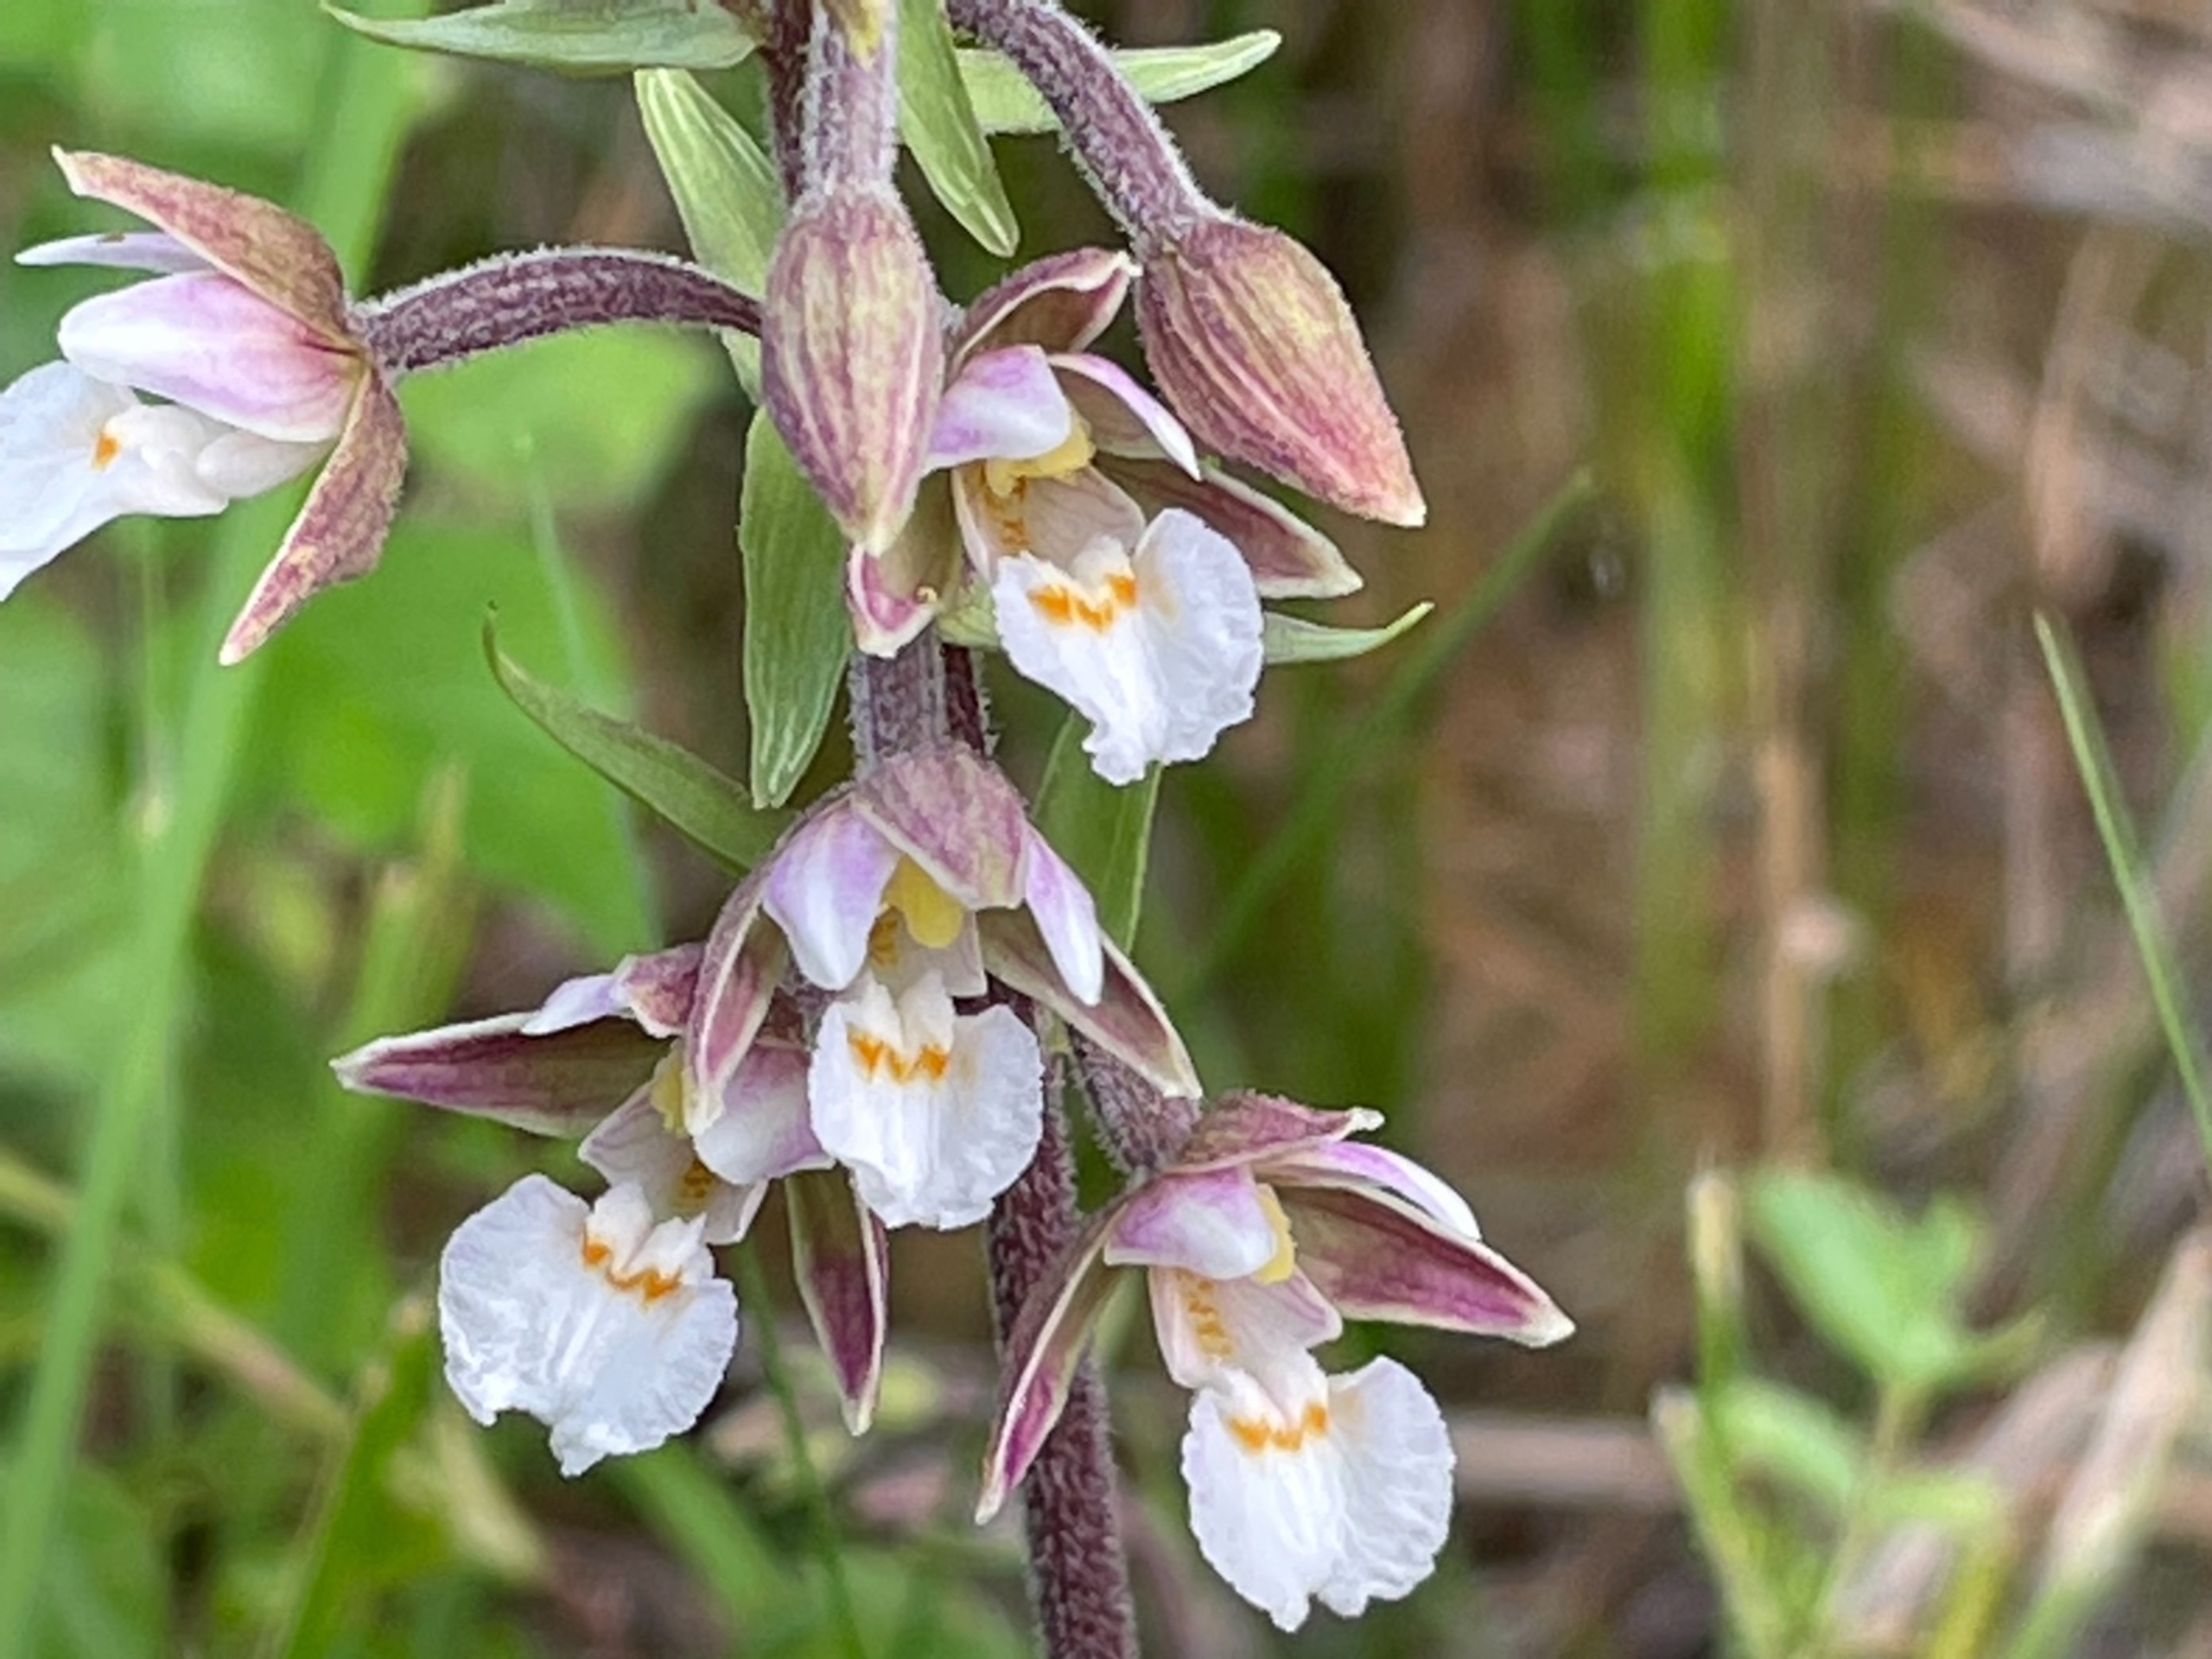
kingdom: Plantae
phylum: Tracheophyta
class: Liliopsida
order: Asparagales
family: Orchidaceae
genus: Epipactis
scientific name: Epipactis palustris
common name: Sump-hullæbe
